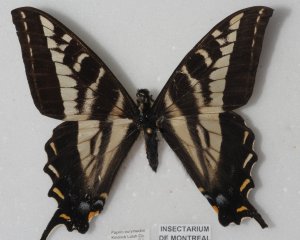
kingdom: Animalia
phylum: Arthropoda
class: Insecta
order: Lepidoptera
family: Papilionidae
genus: Pterourus
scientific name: Pterourus eurymedon
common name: Pale Swallowtail
